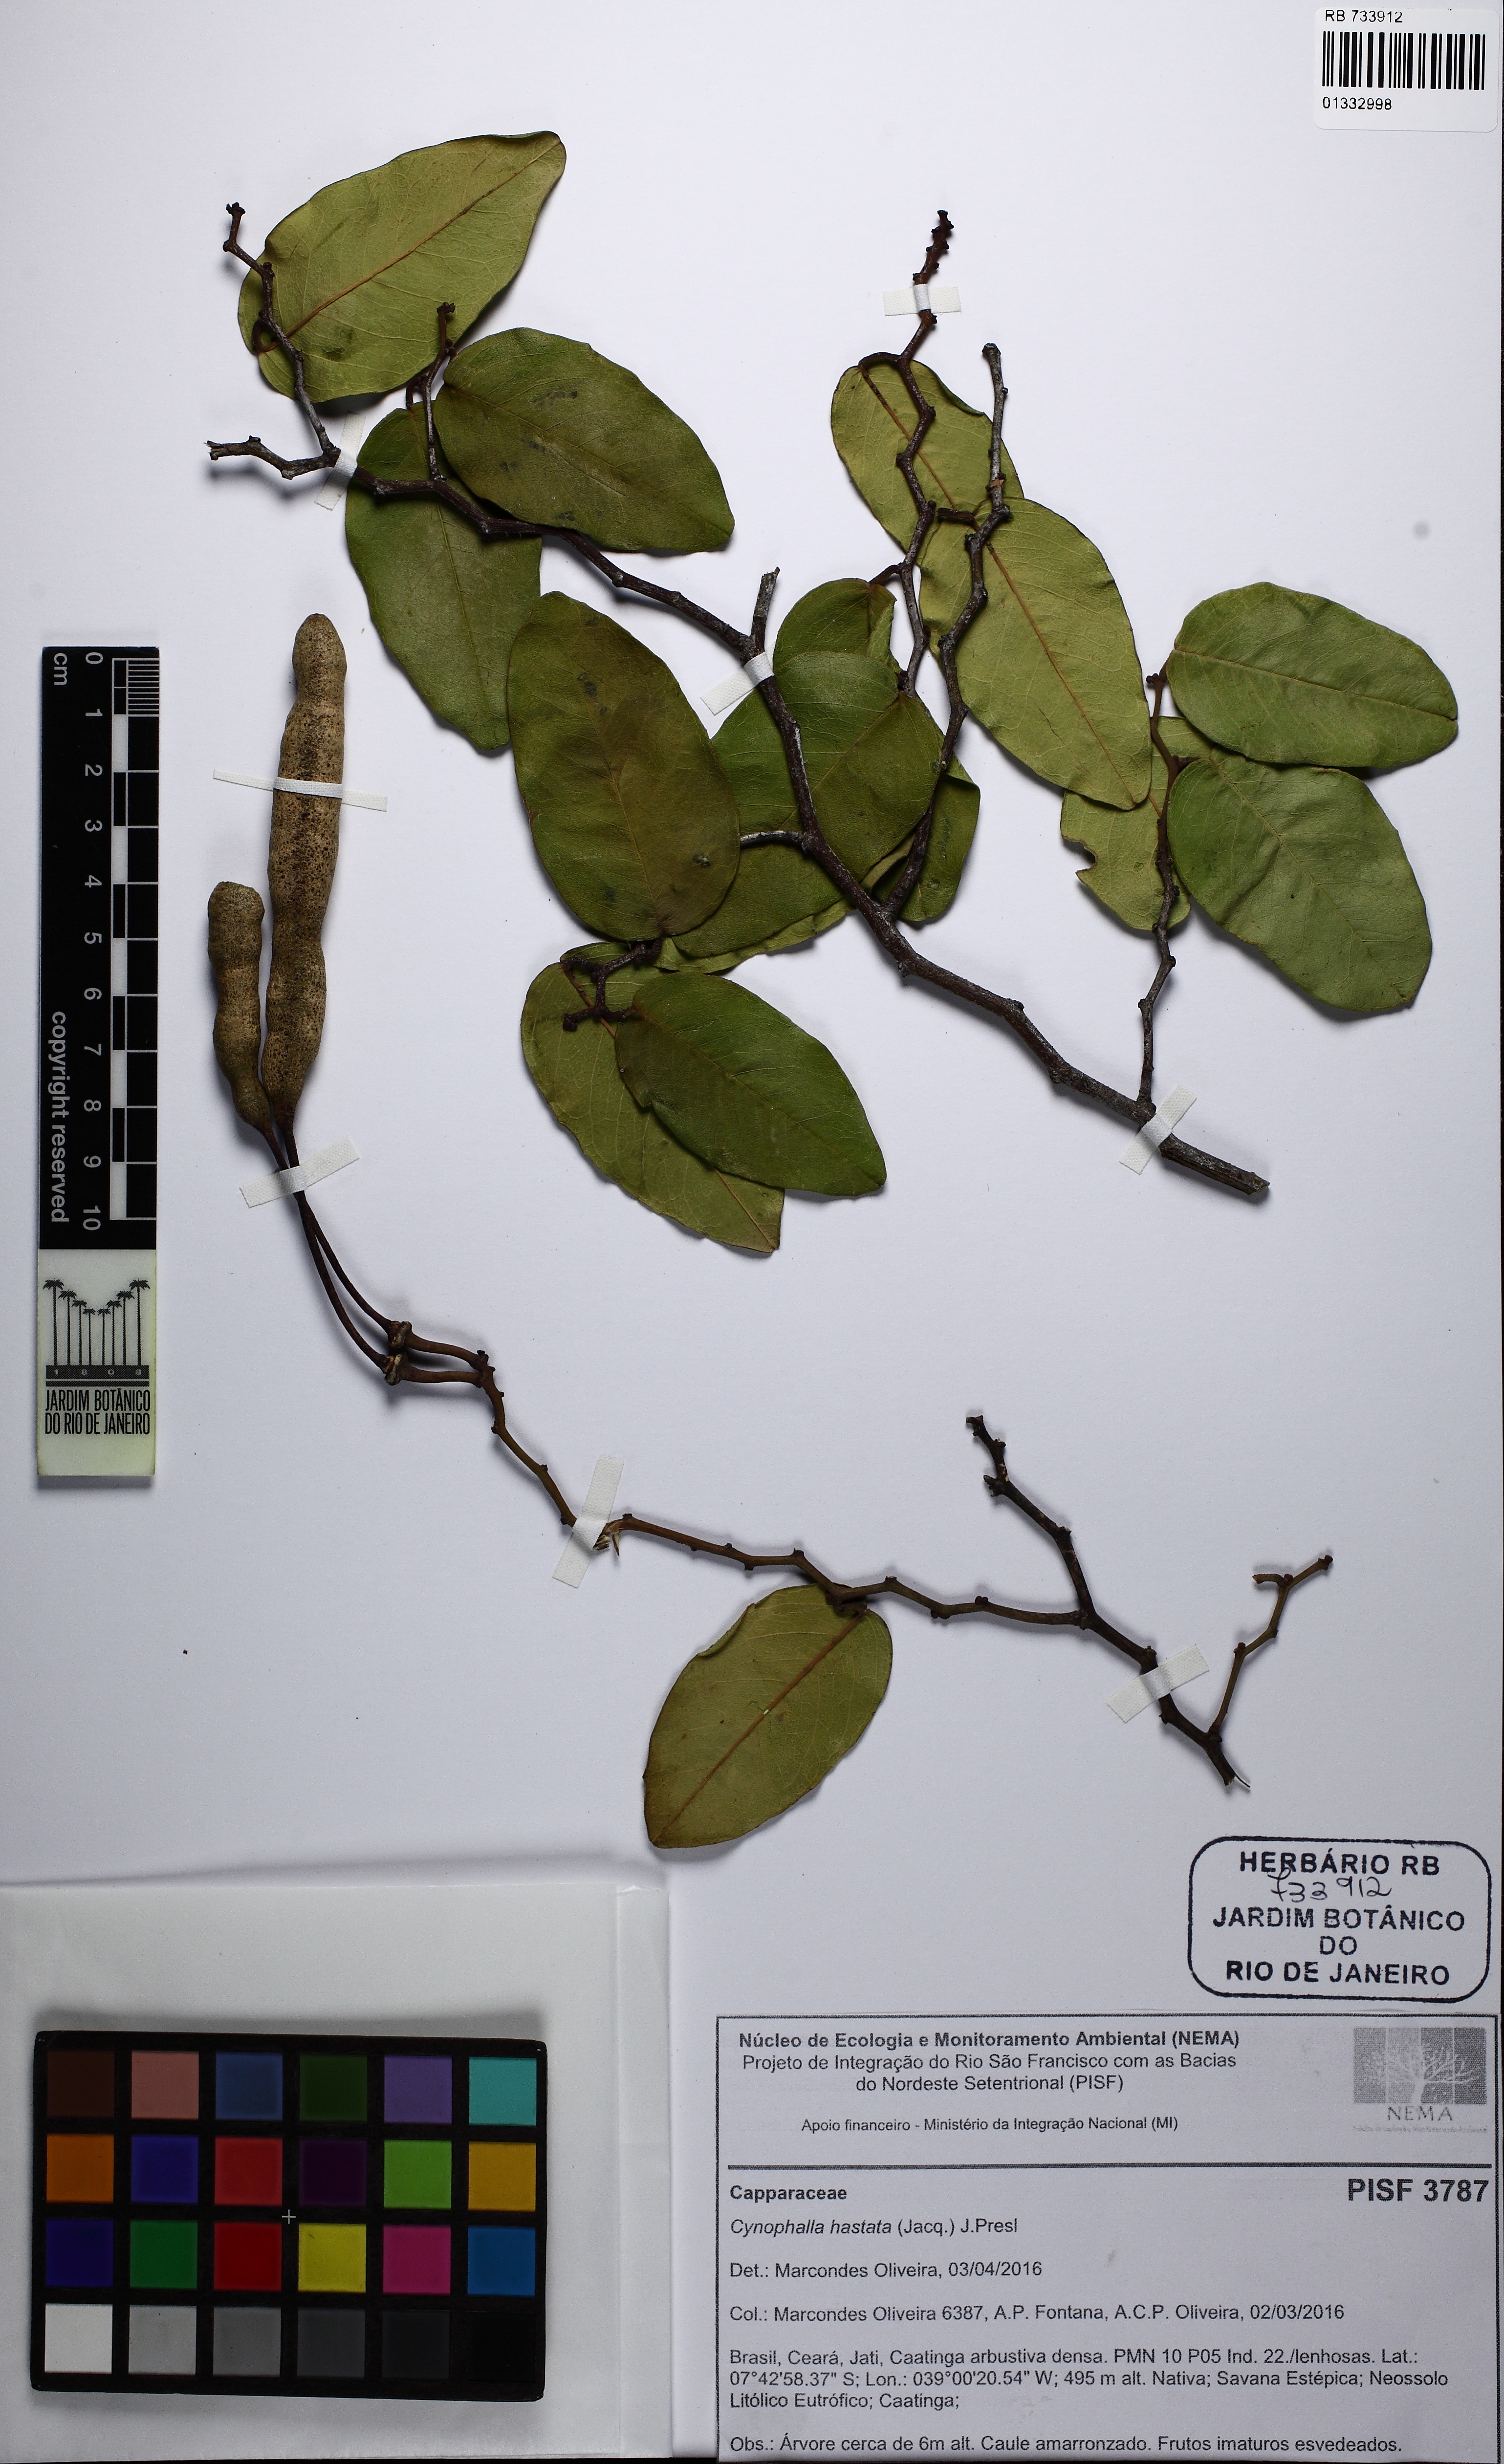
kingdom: Plantae
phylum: Tracheophyta
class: Magnoliopsida
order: Brassicales
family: Capparaceae
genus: Cynophalla
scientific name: Cynophalla hastata
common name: Broadleaf cape
